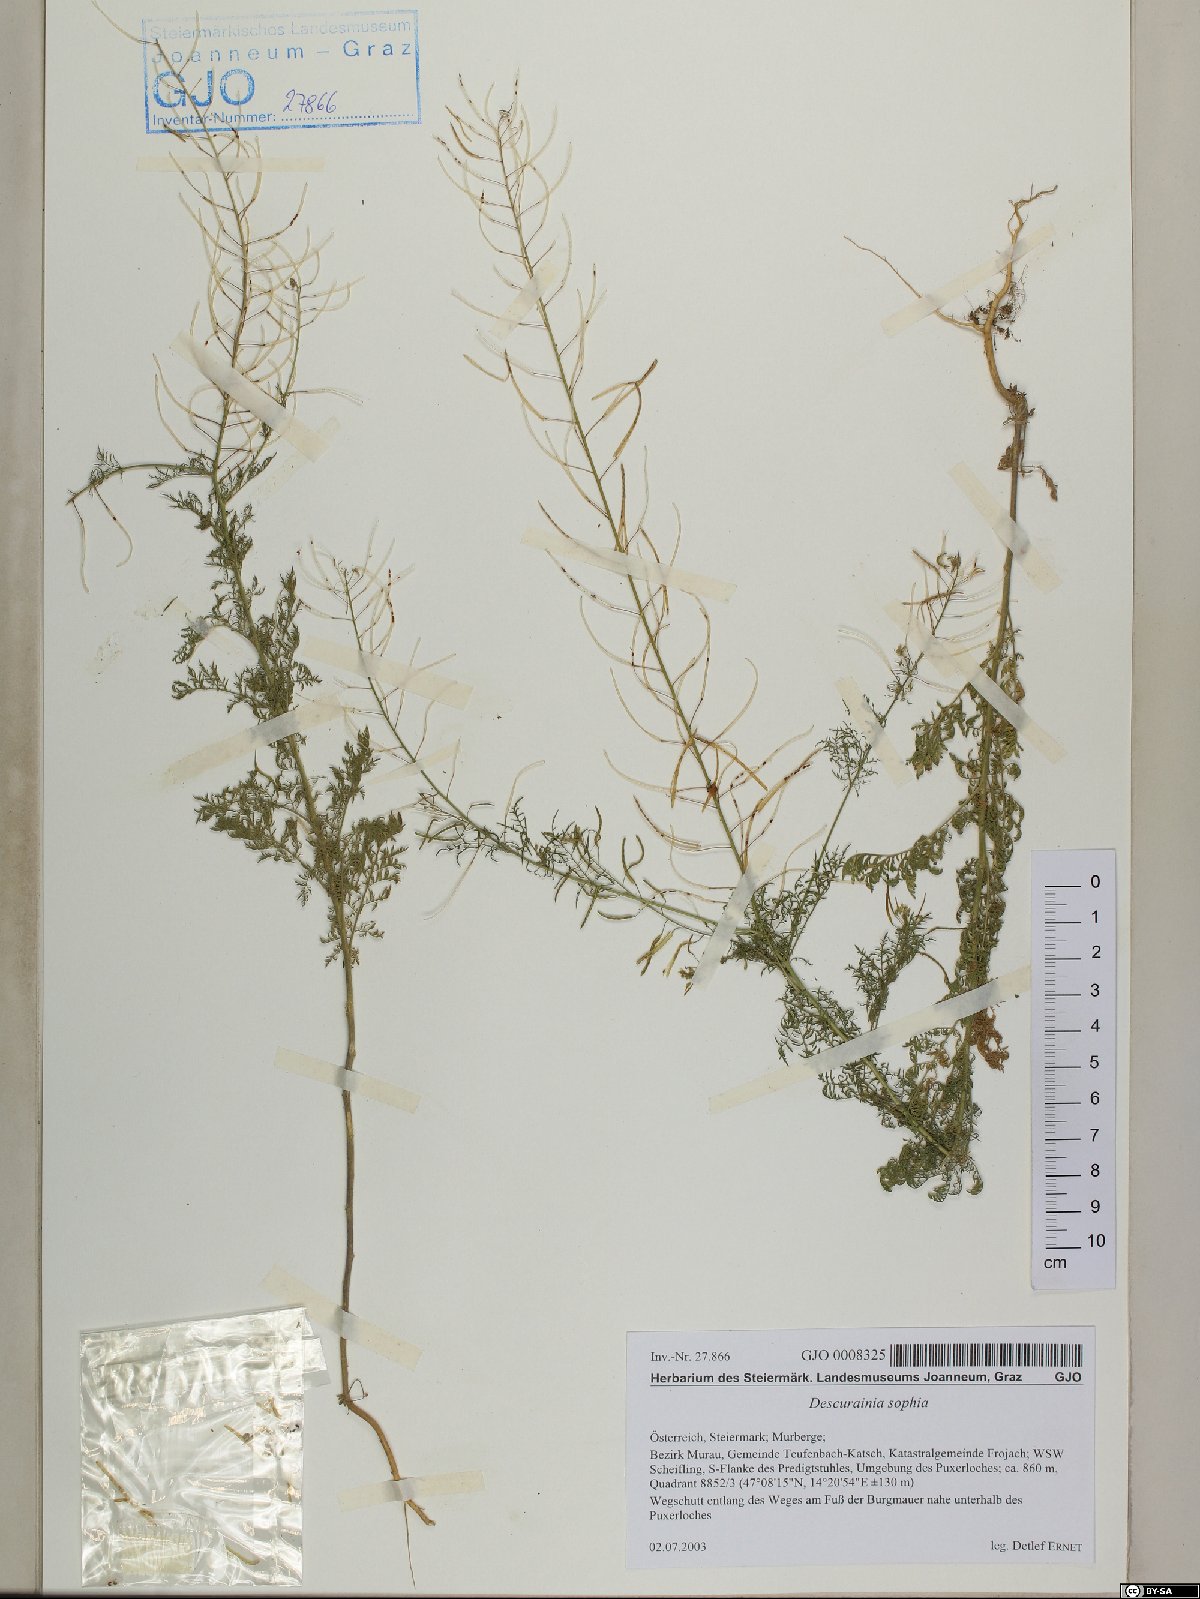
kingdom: Plantae
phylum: Tracheophyta
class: Magnoliopsida
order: Brassicales
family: Brassicaceae
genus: Descurainia
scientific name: Descurainia sophia
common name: Flixweed
